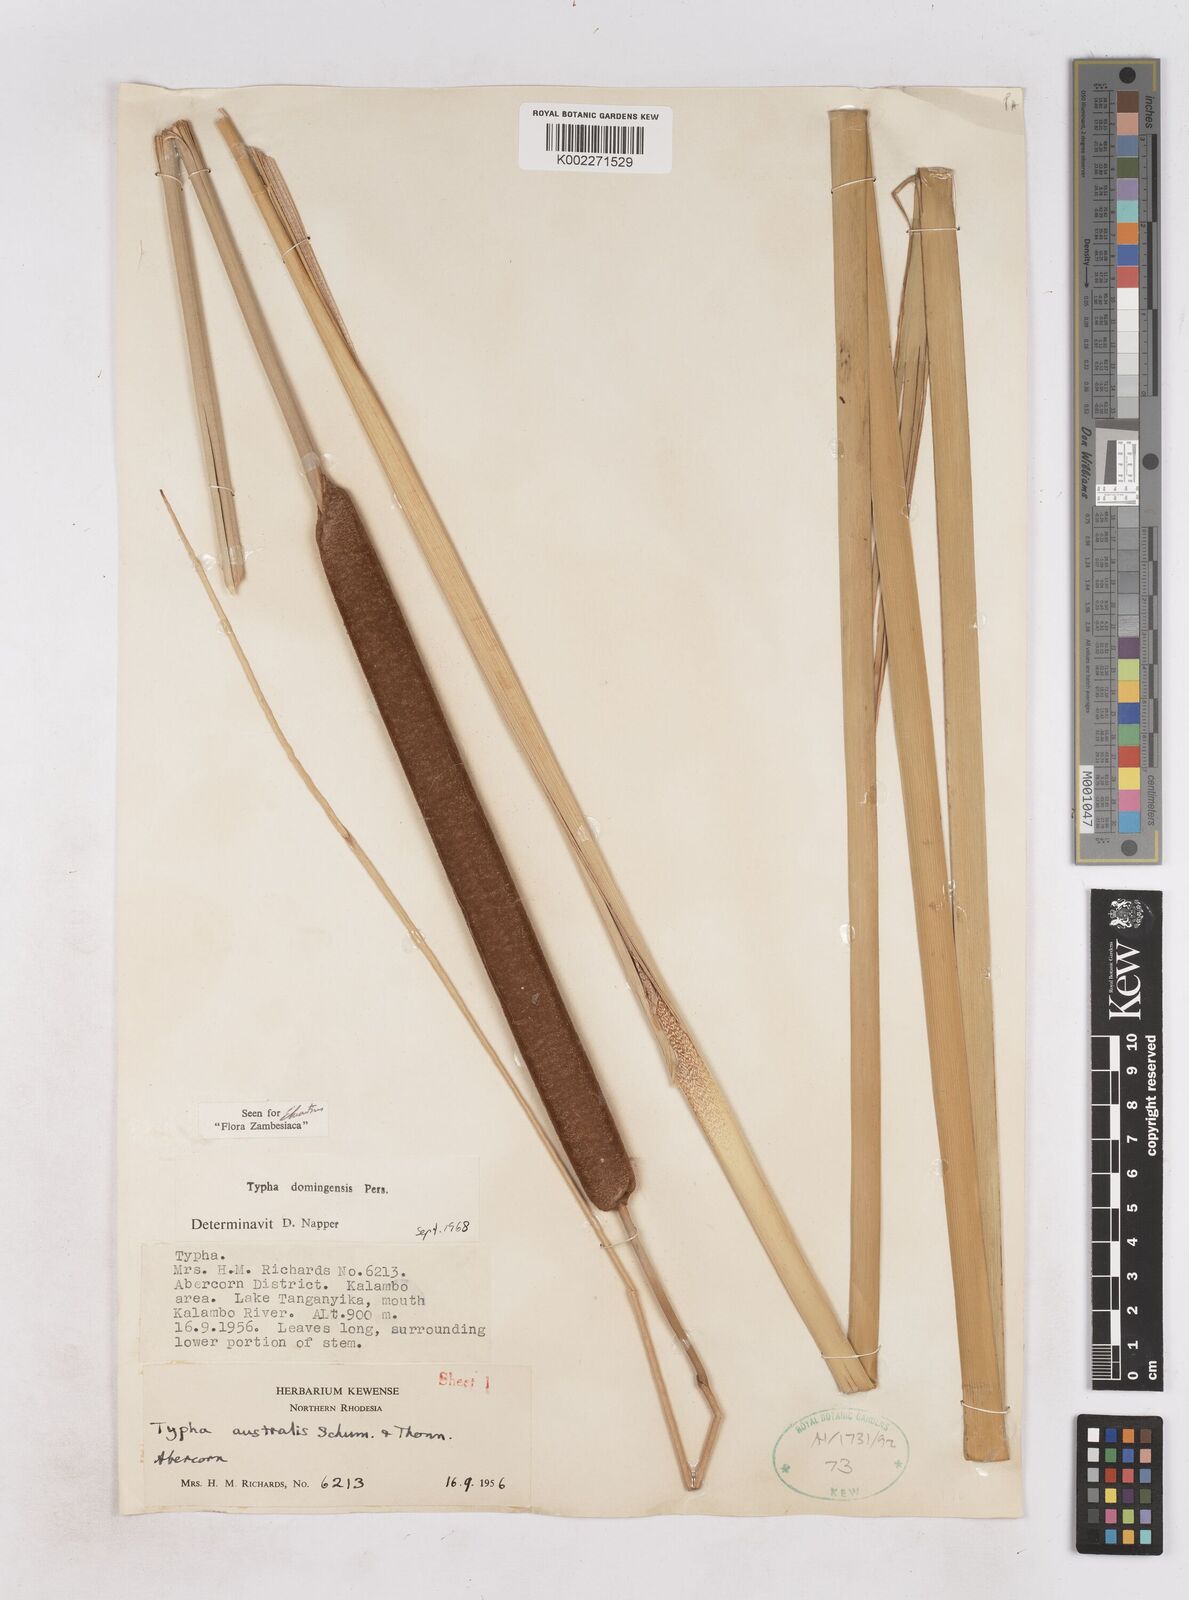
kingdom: Plantae
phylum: Tracheophyta
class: Liliopsida
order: Poales
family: Typhaceae
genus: Typha
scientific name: Typha domingensis
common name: Southern cattail
